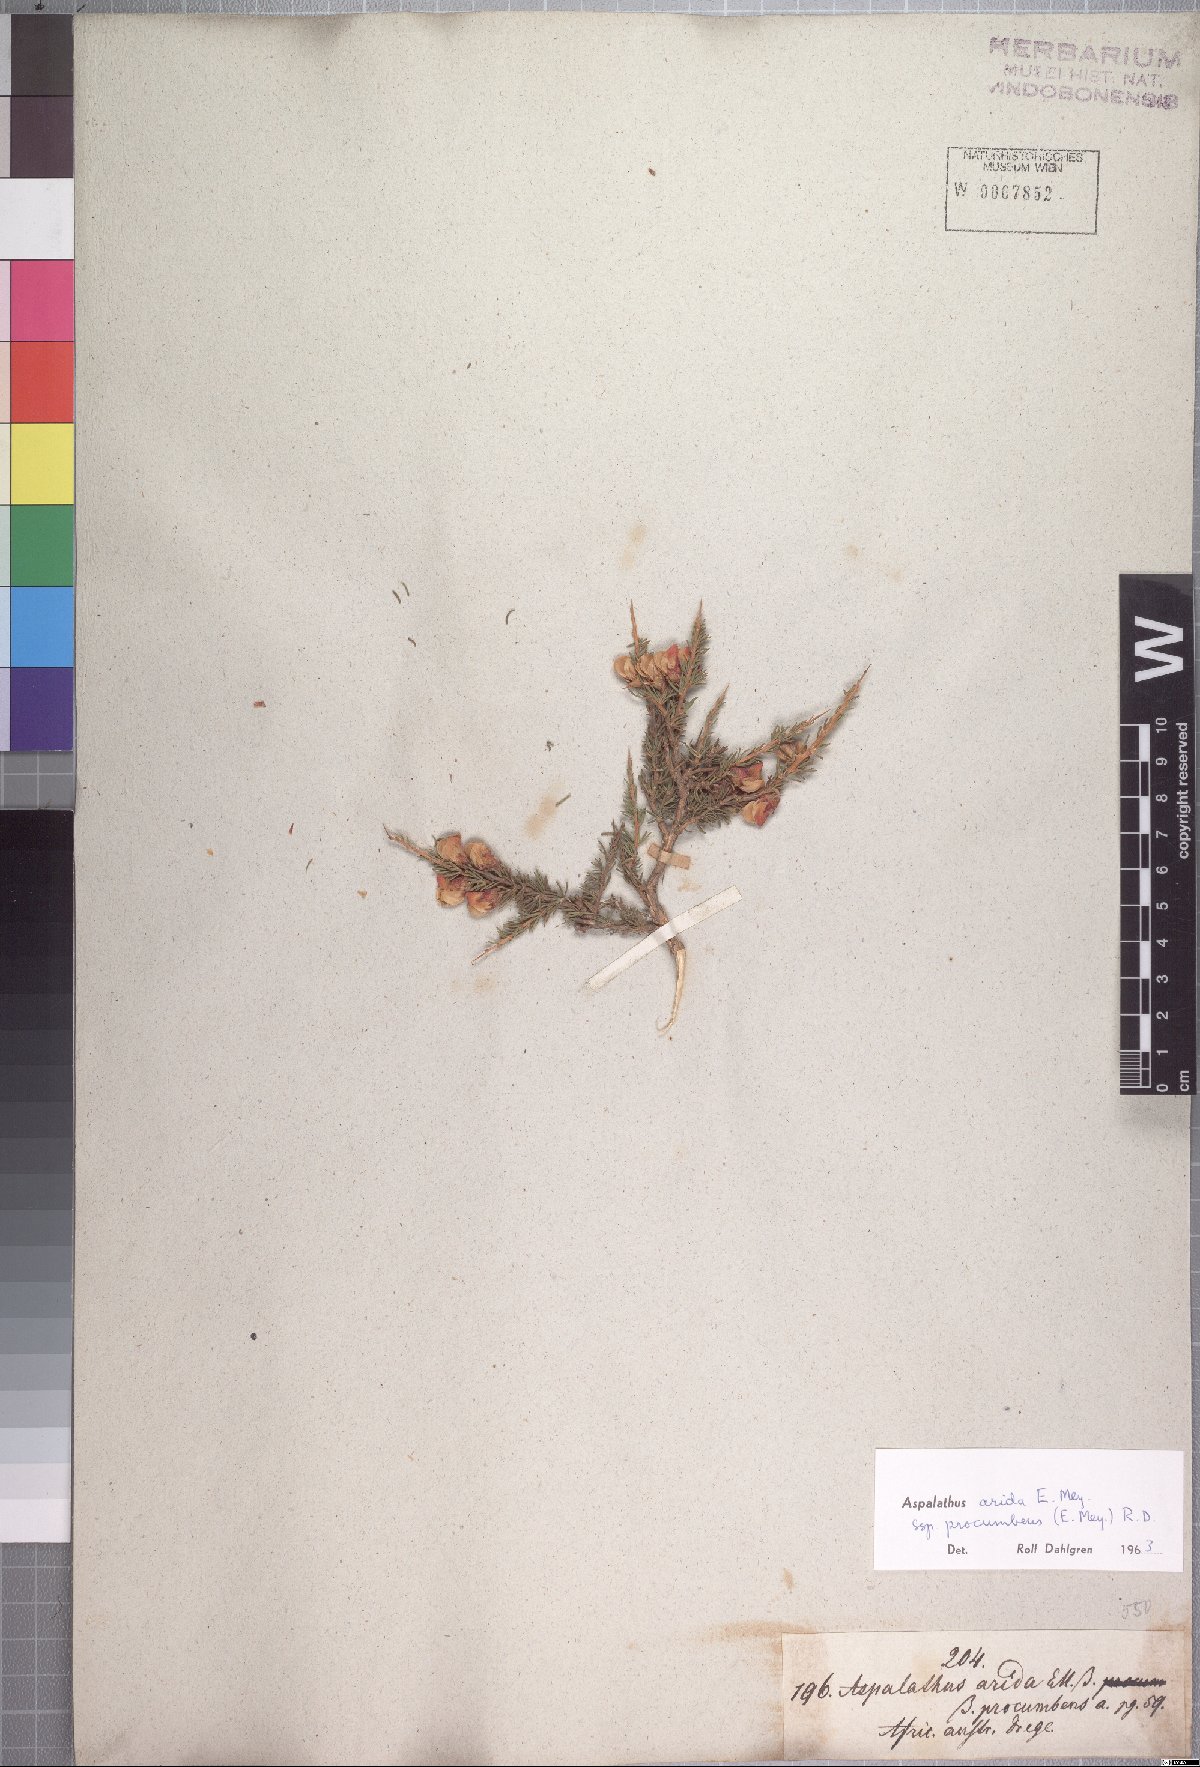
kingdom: Plantae
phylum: Tracheophyta
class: Magnoliopsida
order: Fabales
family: Fabaceae
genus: Aspalathus
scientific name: Aspalathus arida
